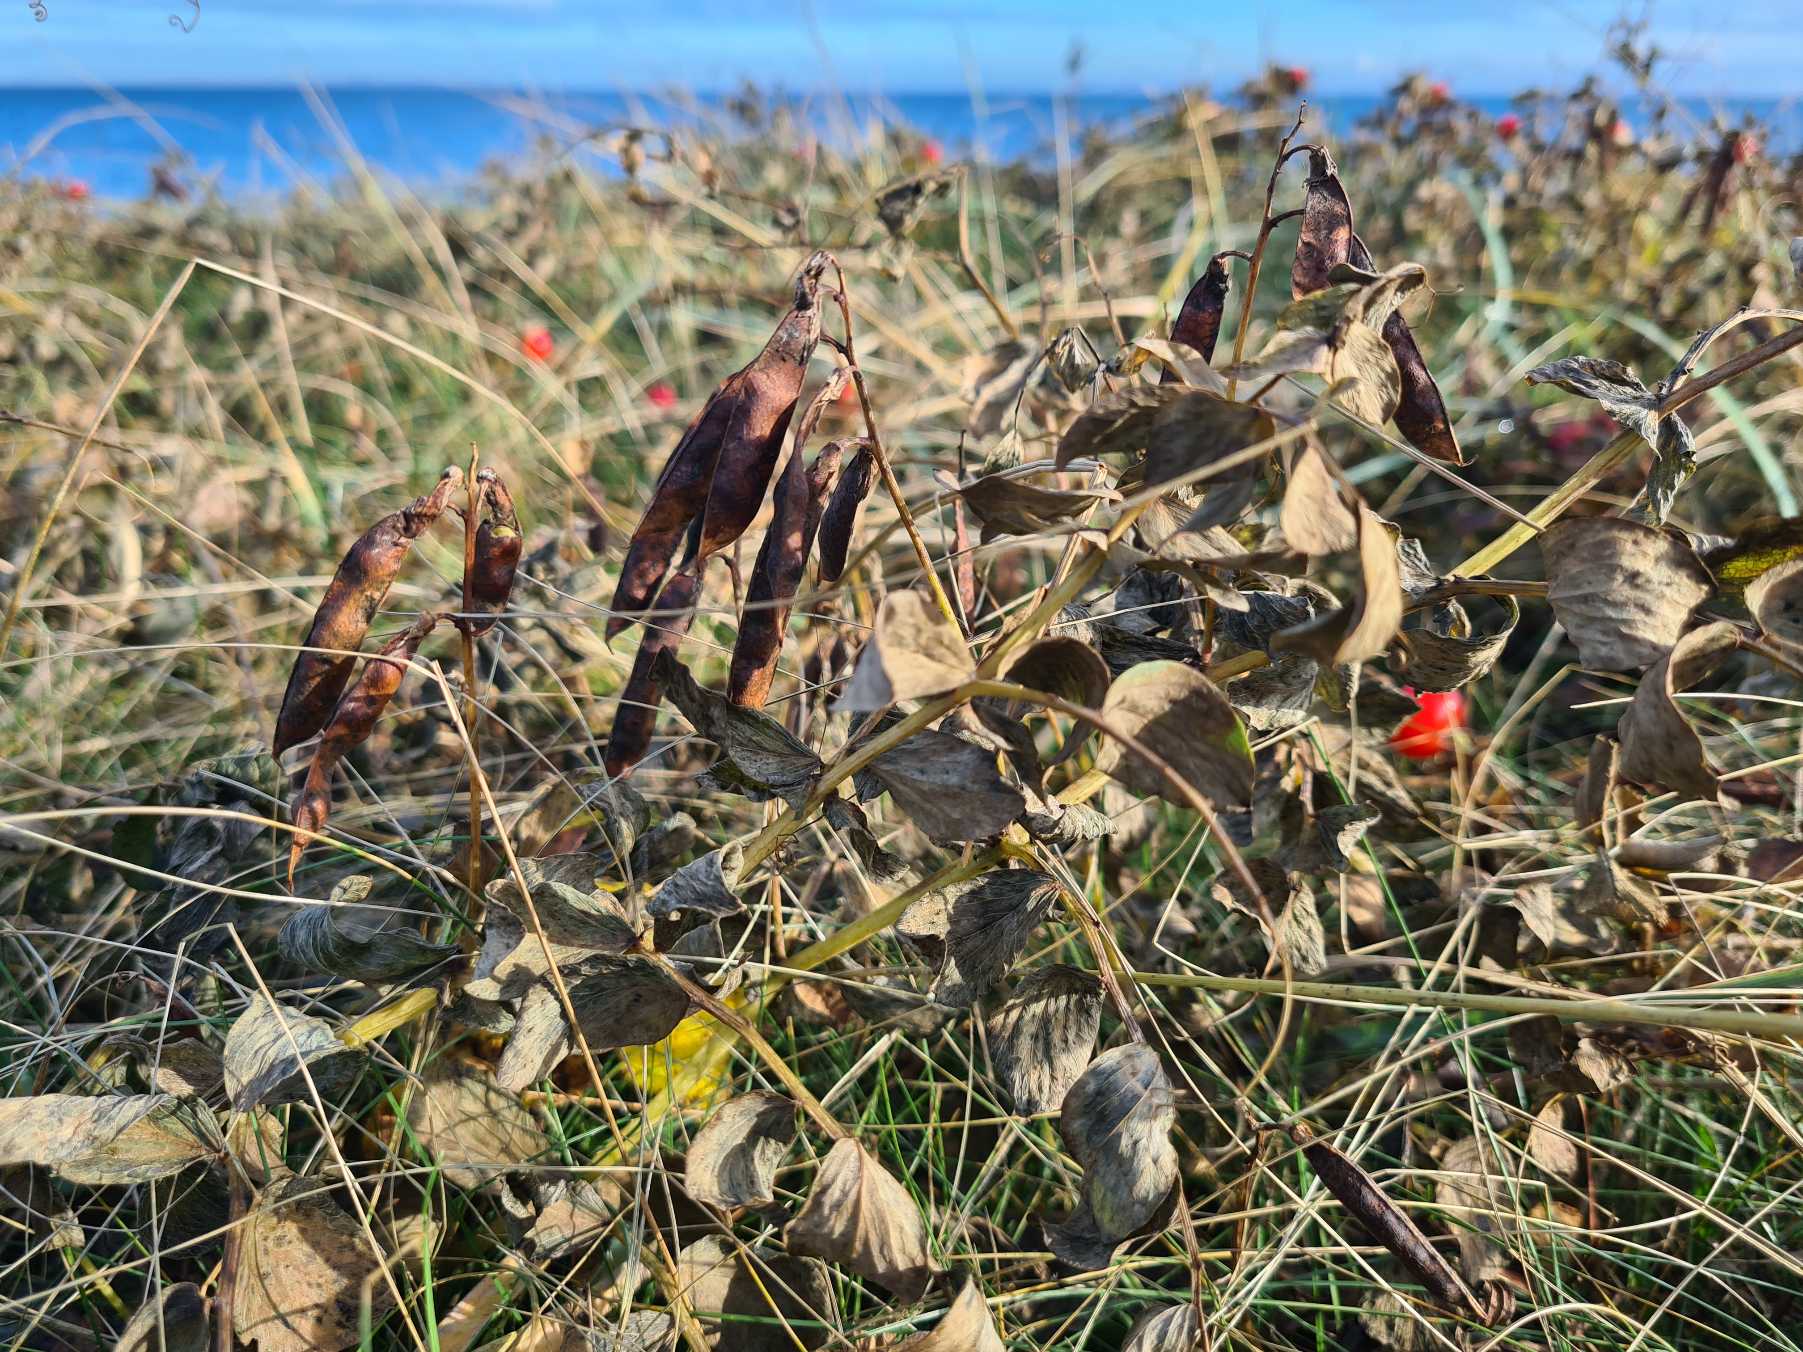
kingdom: Plantae
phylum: Tracheophyta
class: Magnoliopsida
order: Fabales
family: Fabaceae
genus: Lathyrus
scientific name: Lathyrus japonicus
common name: Strand-fladbælg
